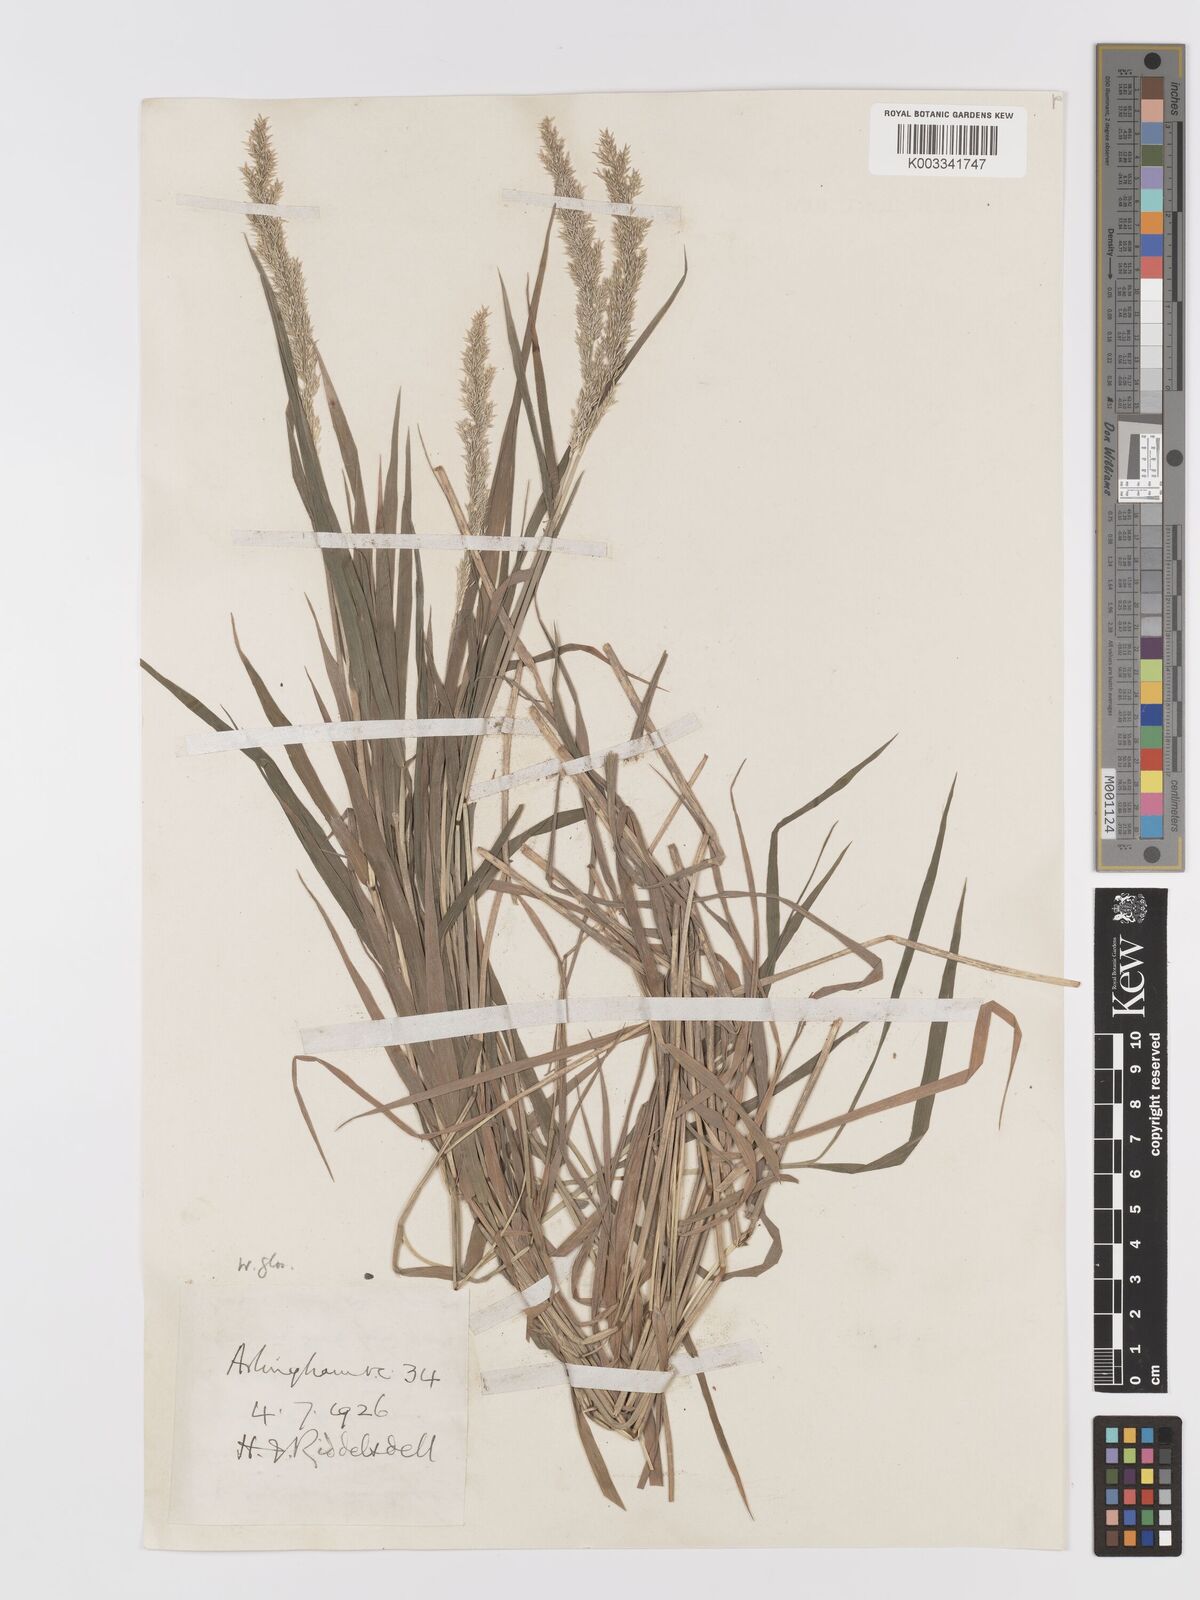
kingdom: Plantae
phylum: Tracheophyta
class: Liliopsida
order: Poales
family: Poaceae
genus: Agrostis
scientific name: Agrostis stolonifera
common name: Creeping bentgrass
